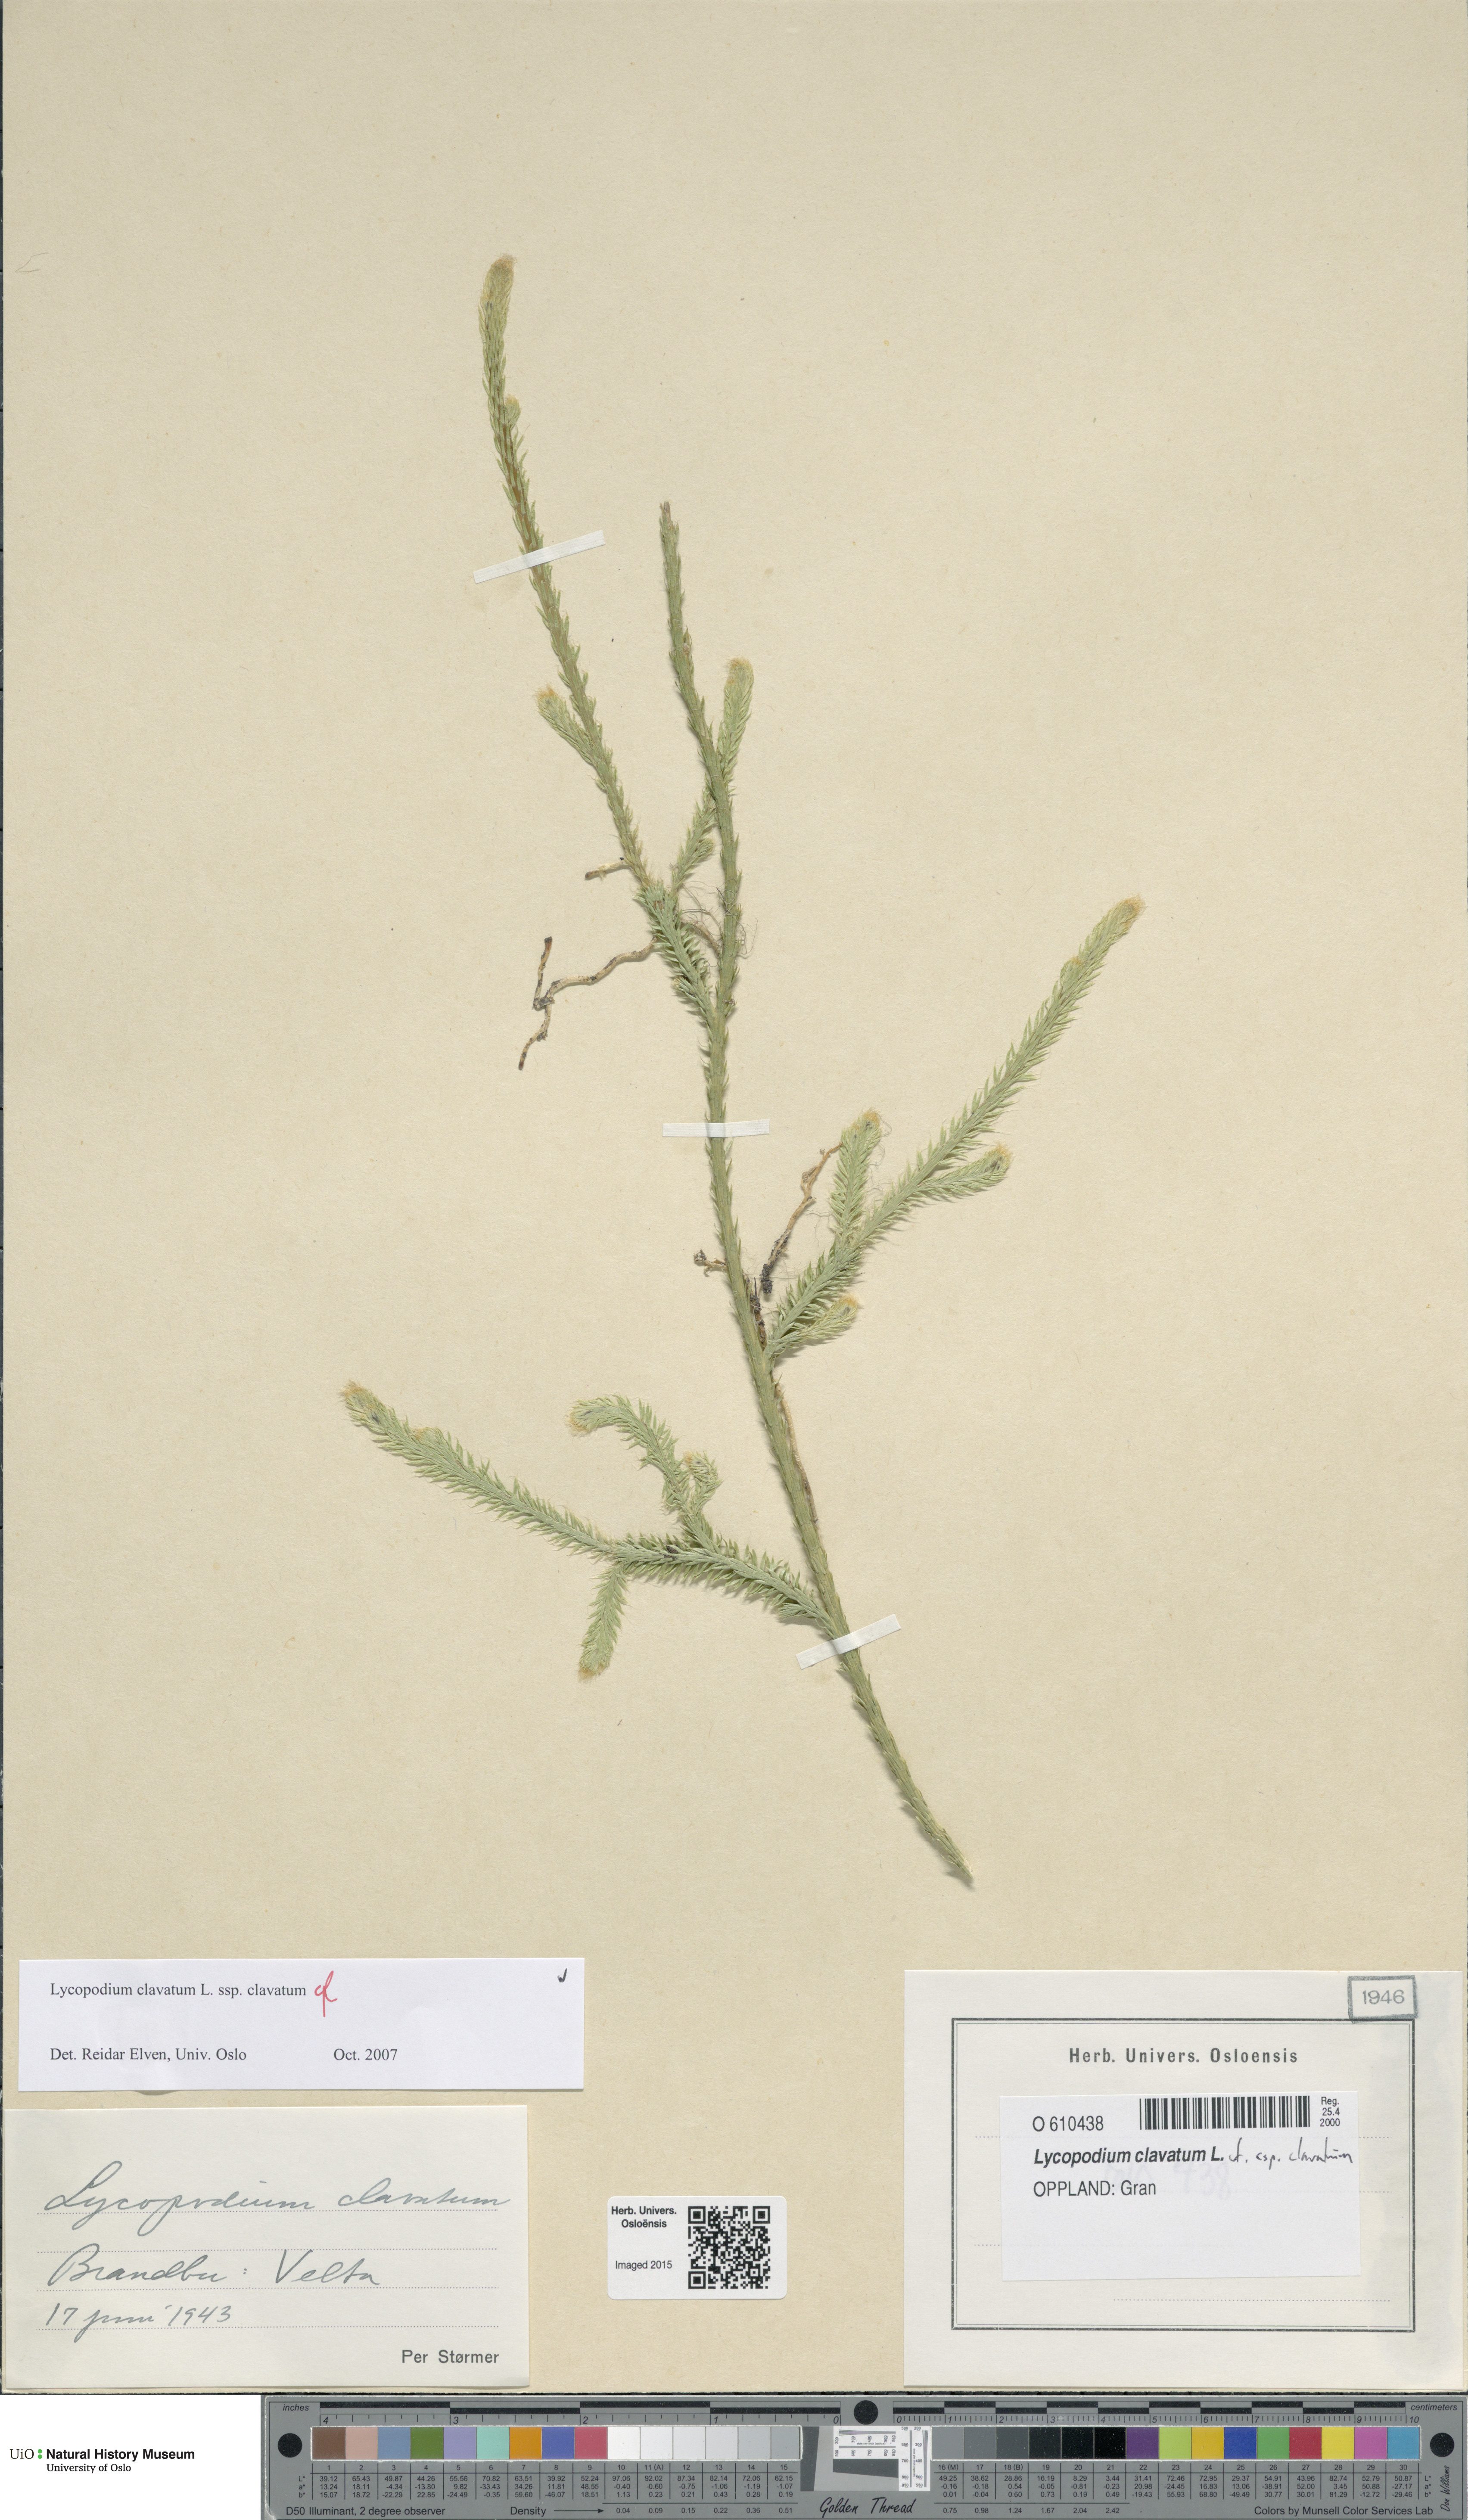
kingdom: Plantae
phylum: Tracheophyta
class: Lycopodiopsida
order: Lycopodiales
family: Lycopodiaceae
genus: Lycopodium
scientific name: Lycopodium clavatum
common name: Stag's-horn clubmoss
